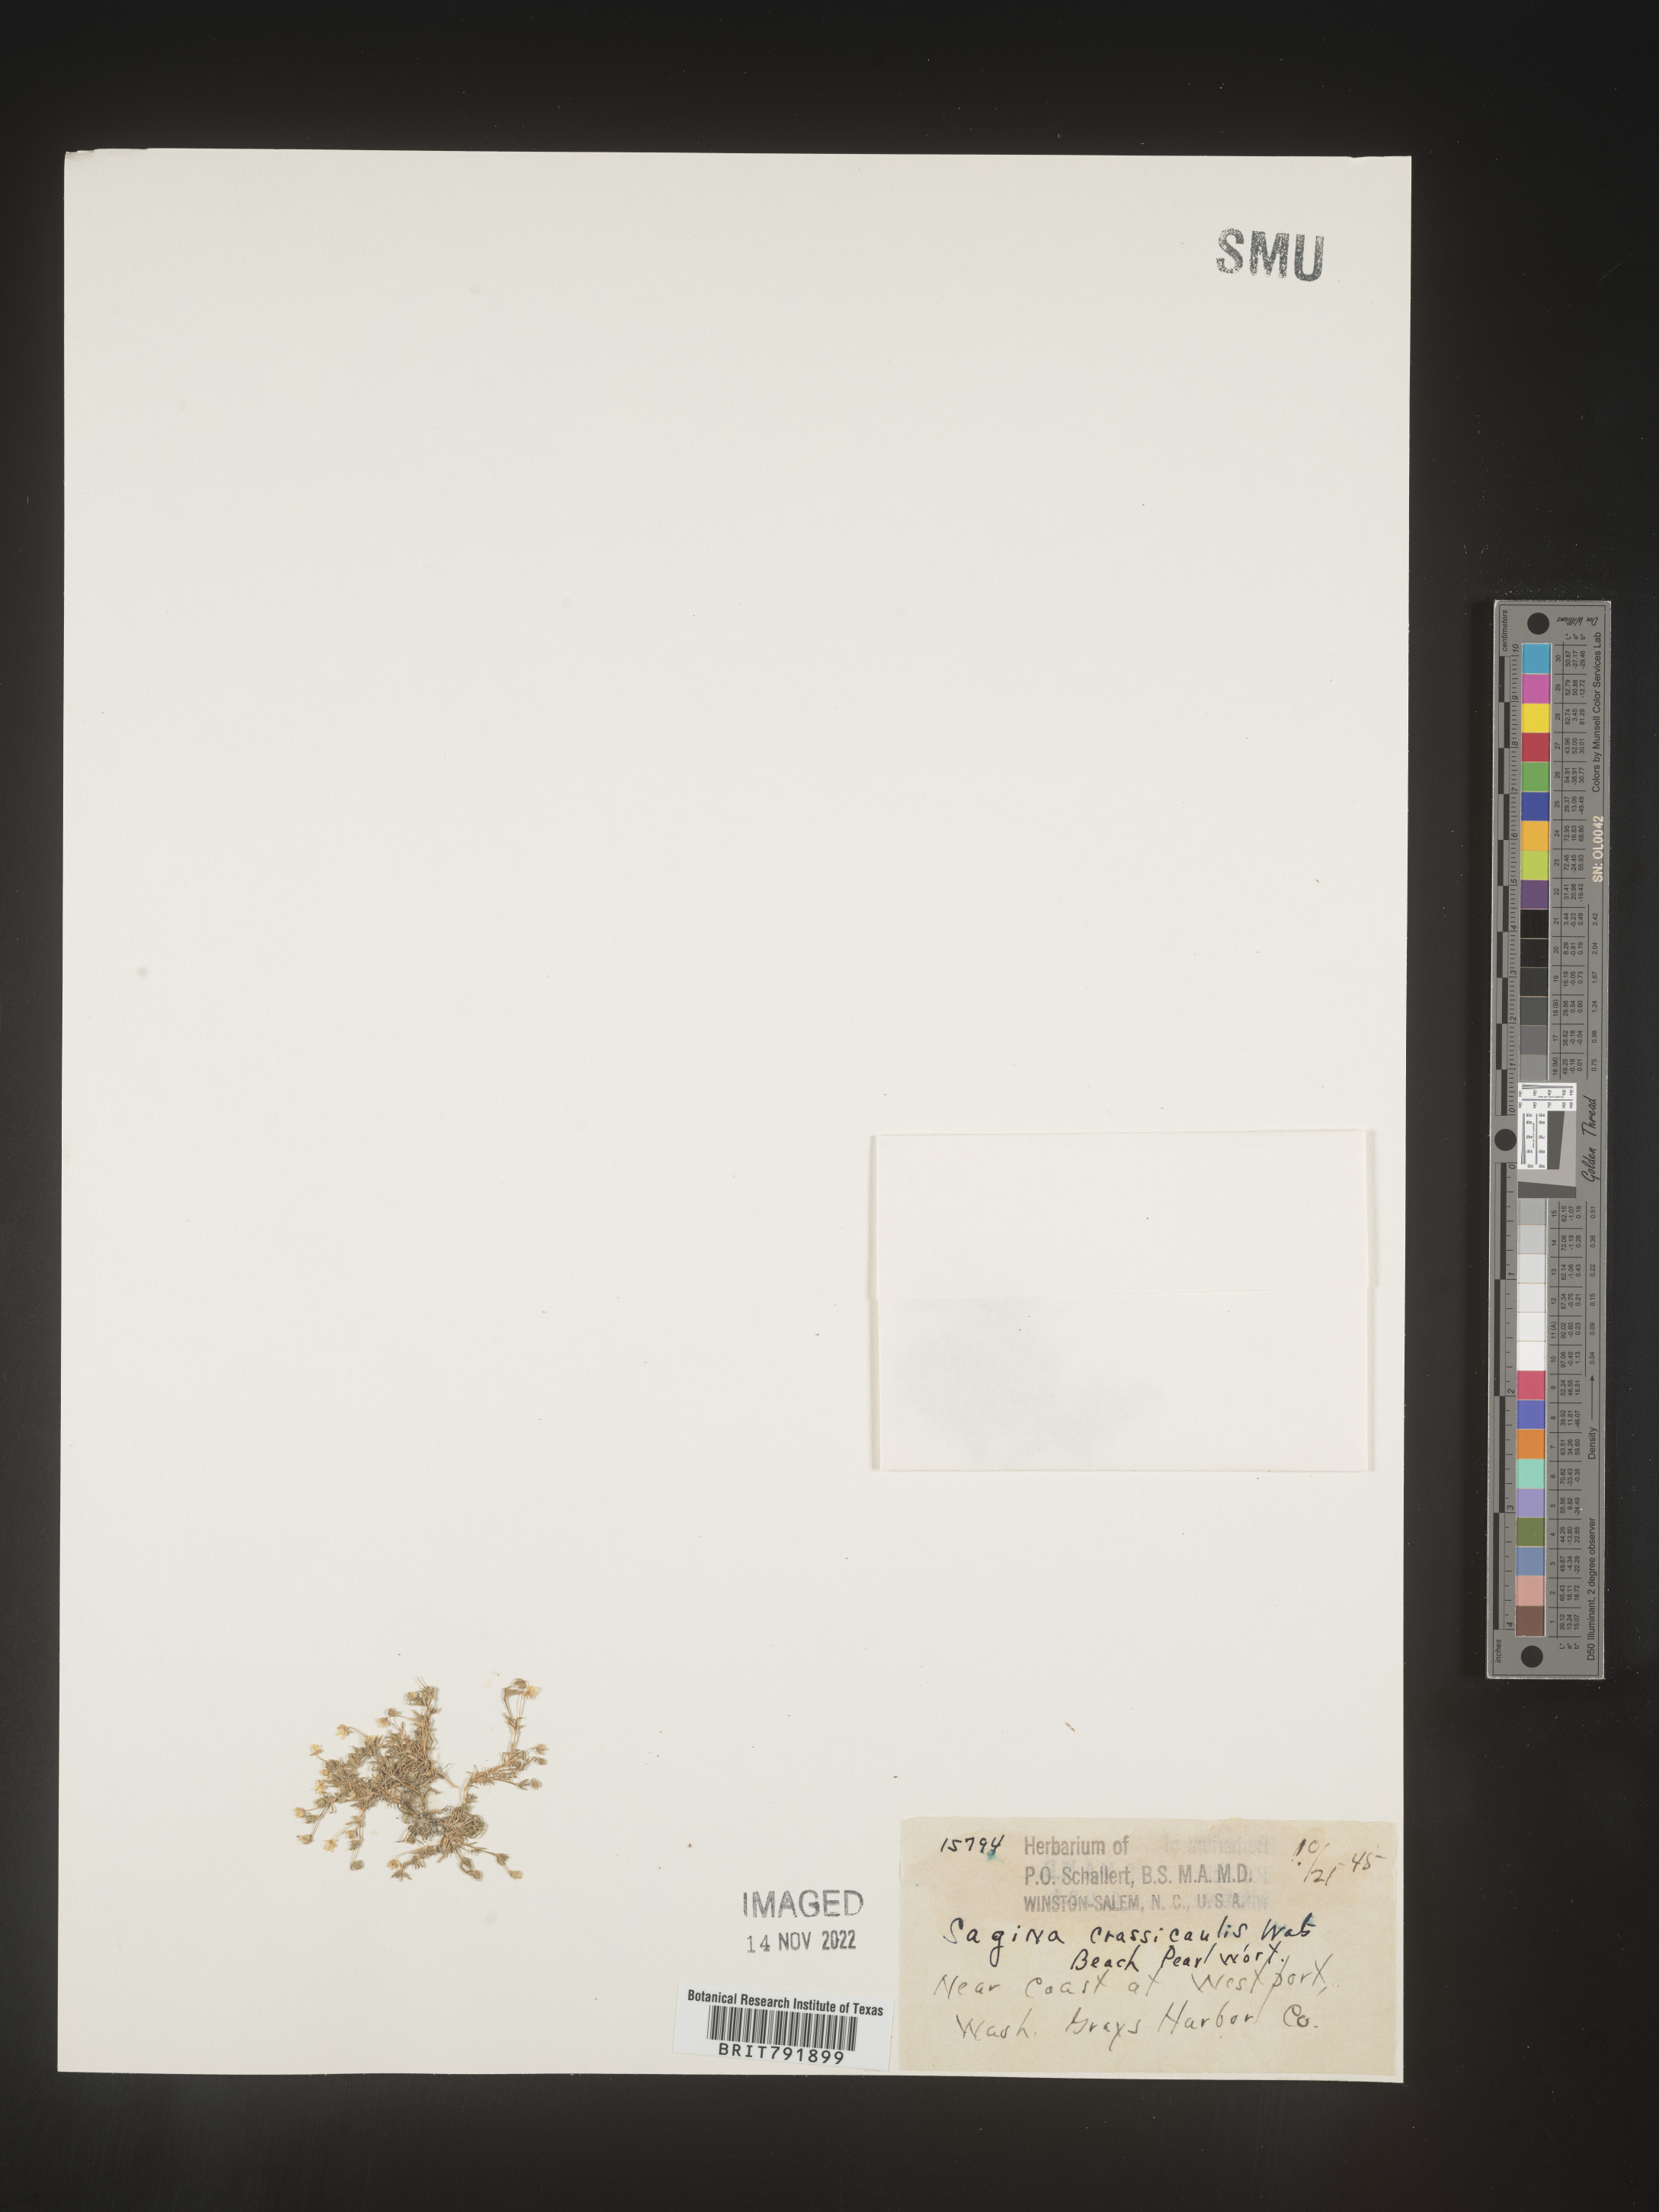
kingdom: Plantae
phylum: Tracheophyta
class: Magnoliopsida
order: Caryophyllales
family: Caryophyllaceae
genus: Sagina
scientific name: Sagina
